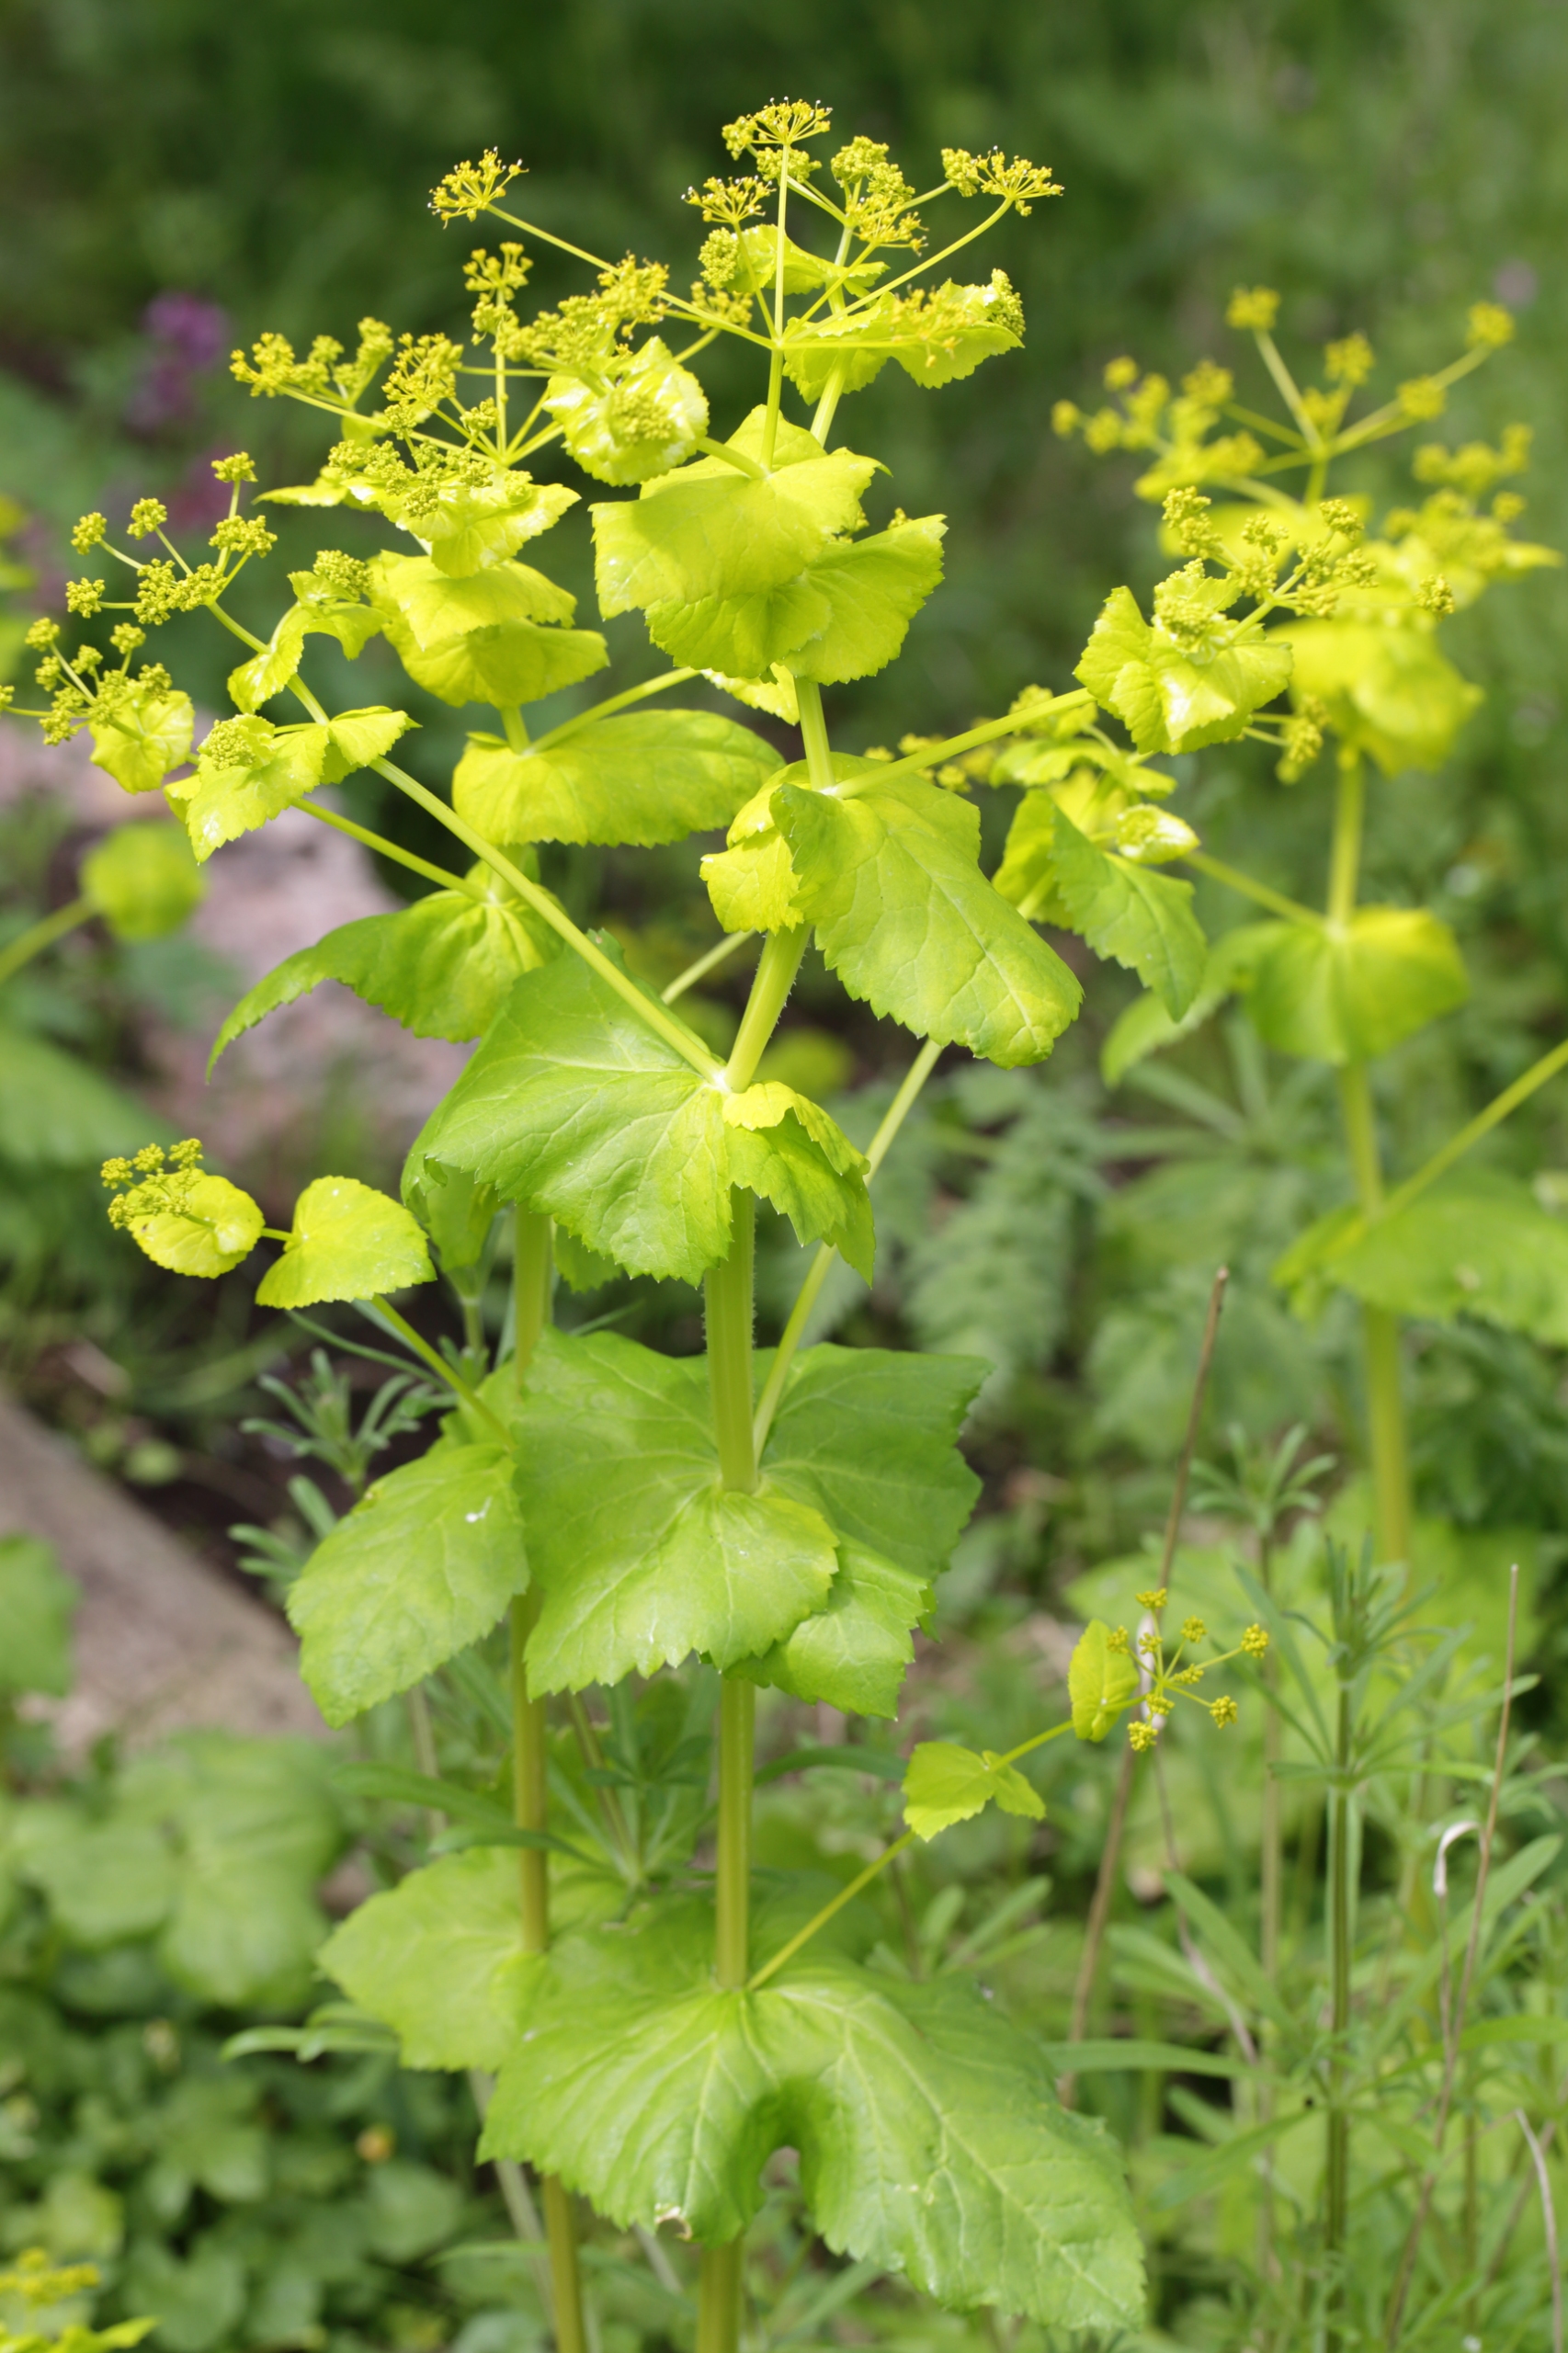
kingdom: Plantae
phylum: Tracheophyta
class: Magnoliopsida
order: Apiales
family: Apiaceae
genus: Smyrnium
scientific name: Smyrnium perfoliatum
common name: Lundgylden
